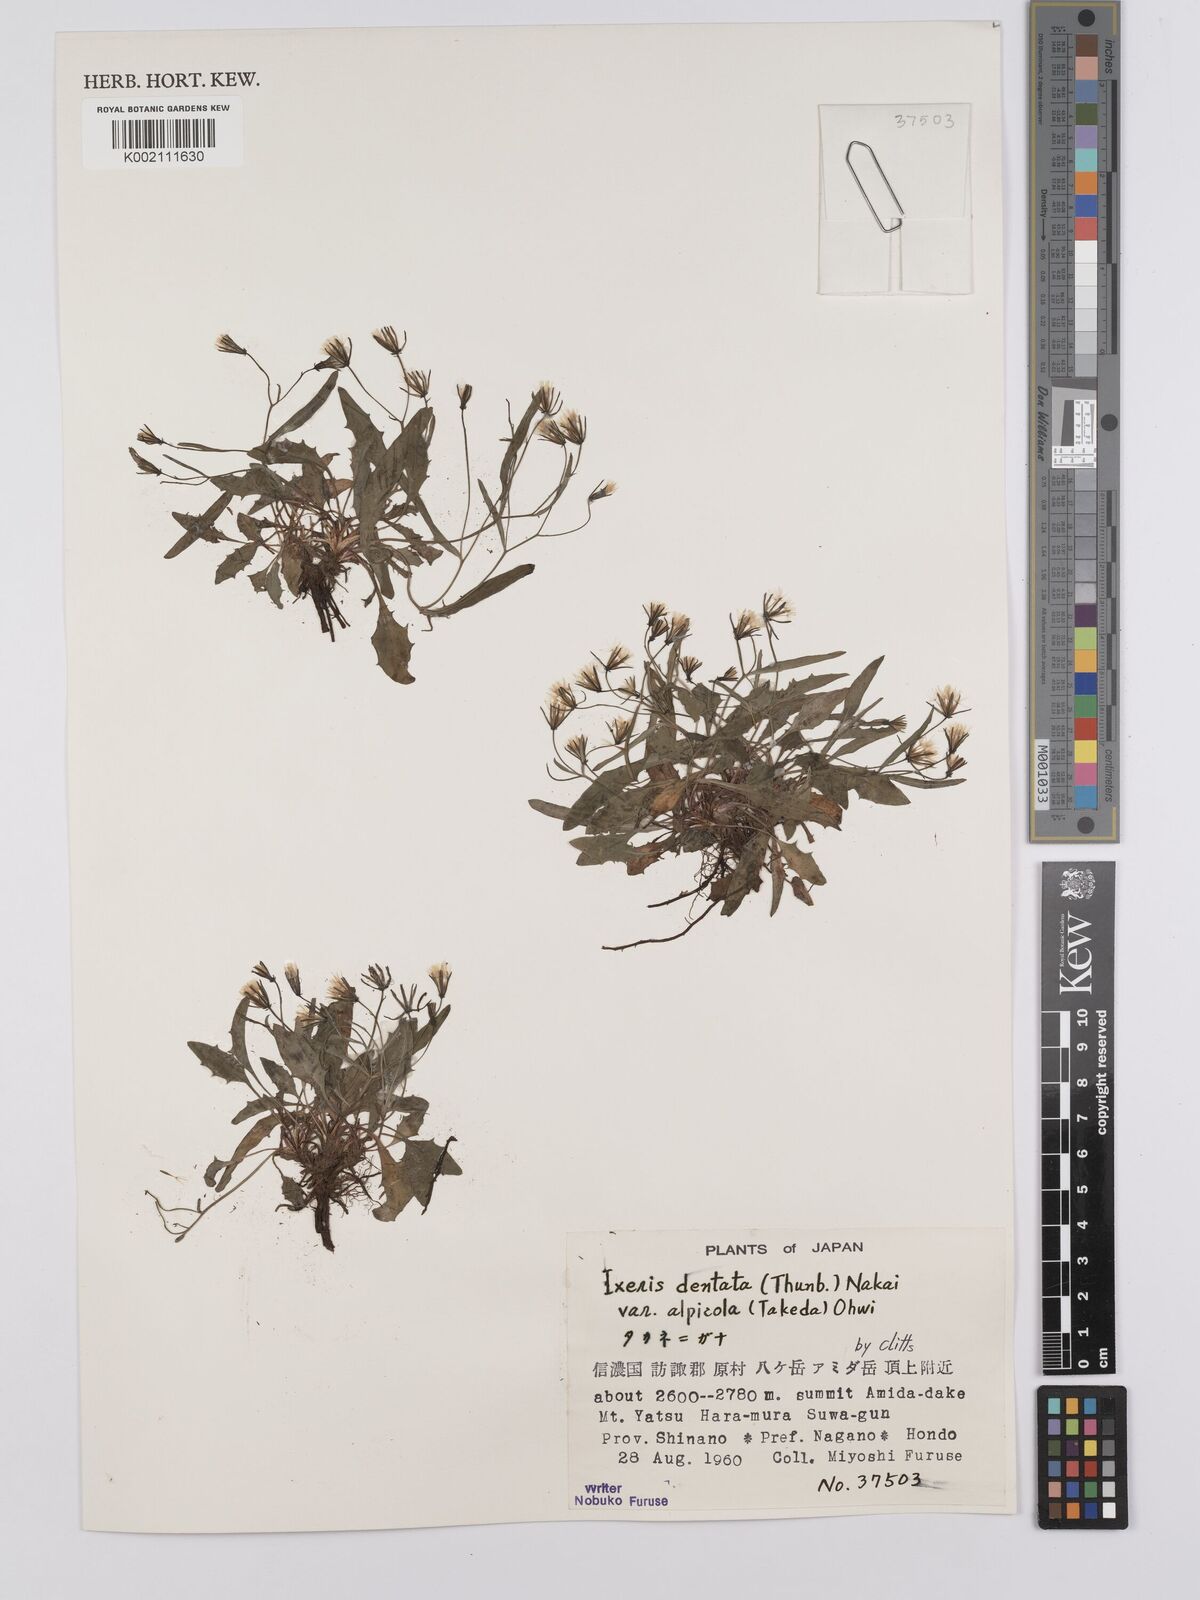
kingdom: Plantae
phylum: Tracheophyta
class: Magnoliopsida
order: Asterales
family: Asteraceae
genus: Ixeridium
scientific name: Ixeridium alpicola
